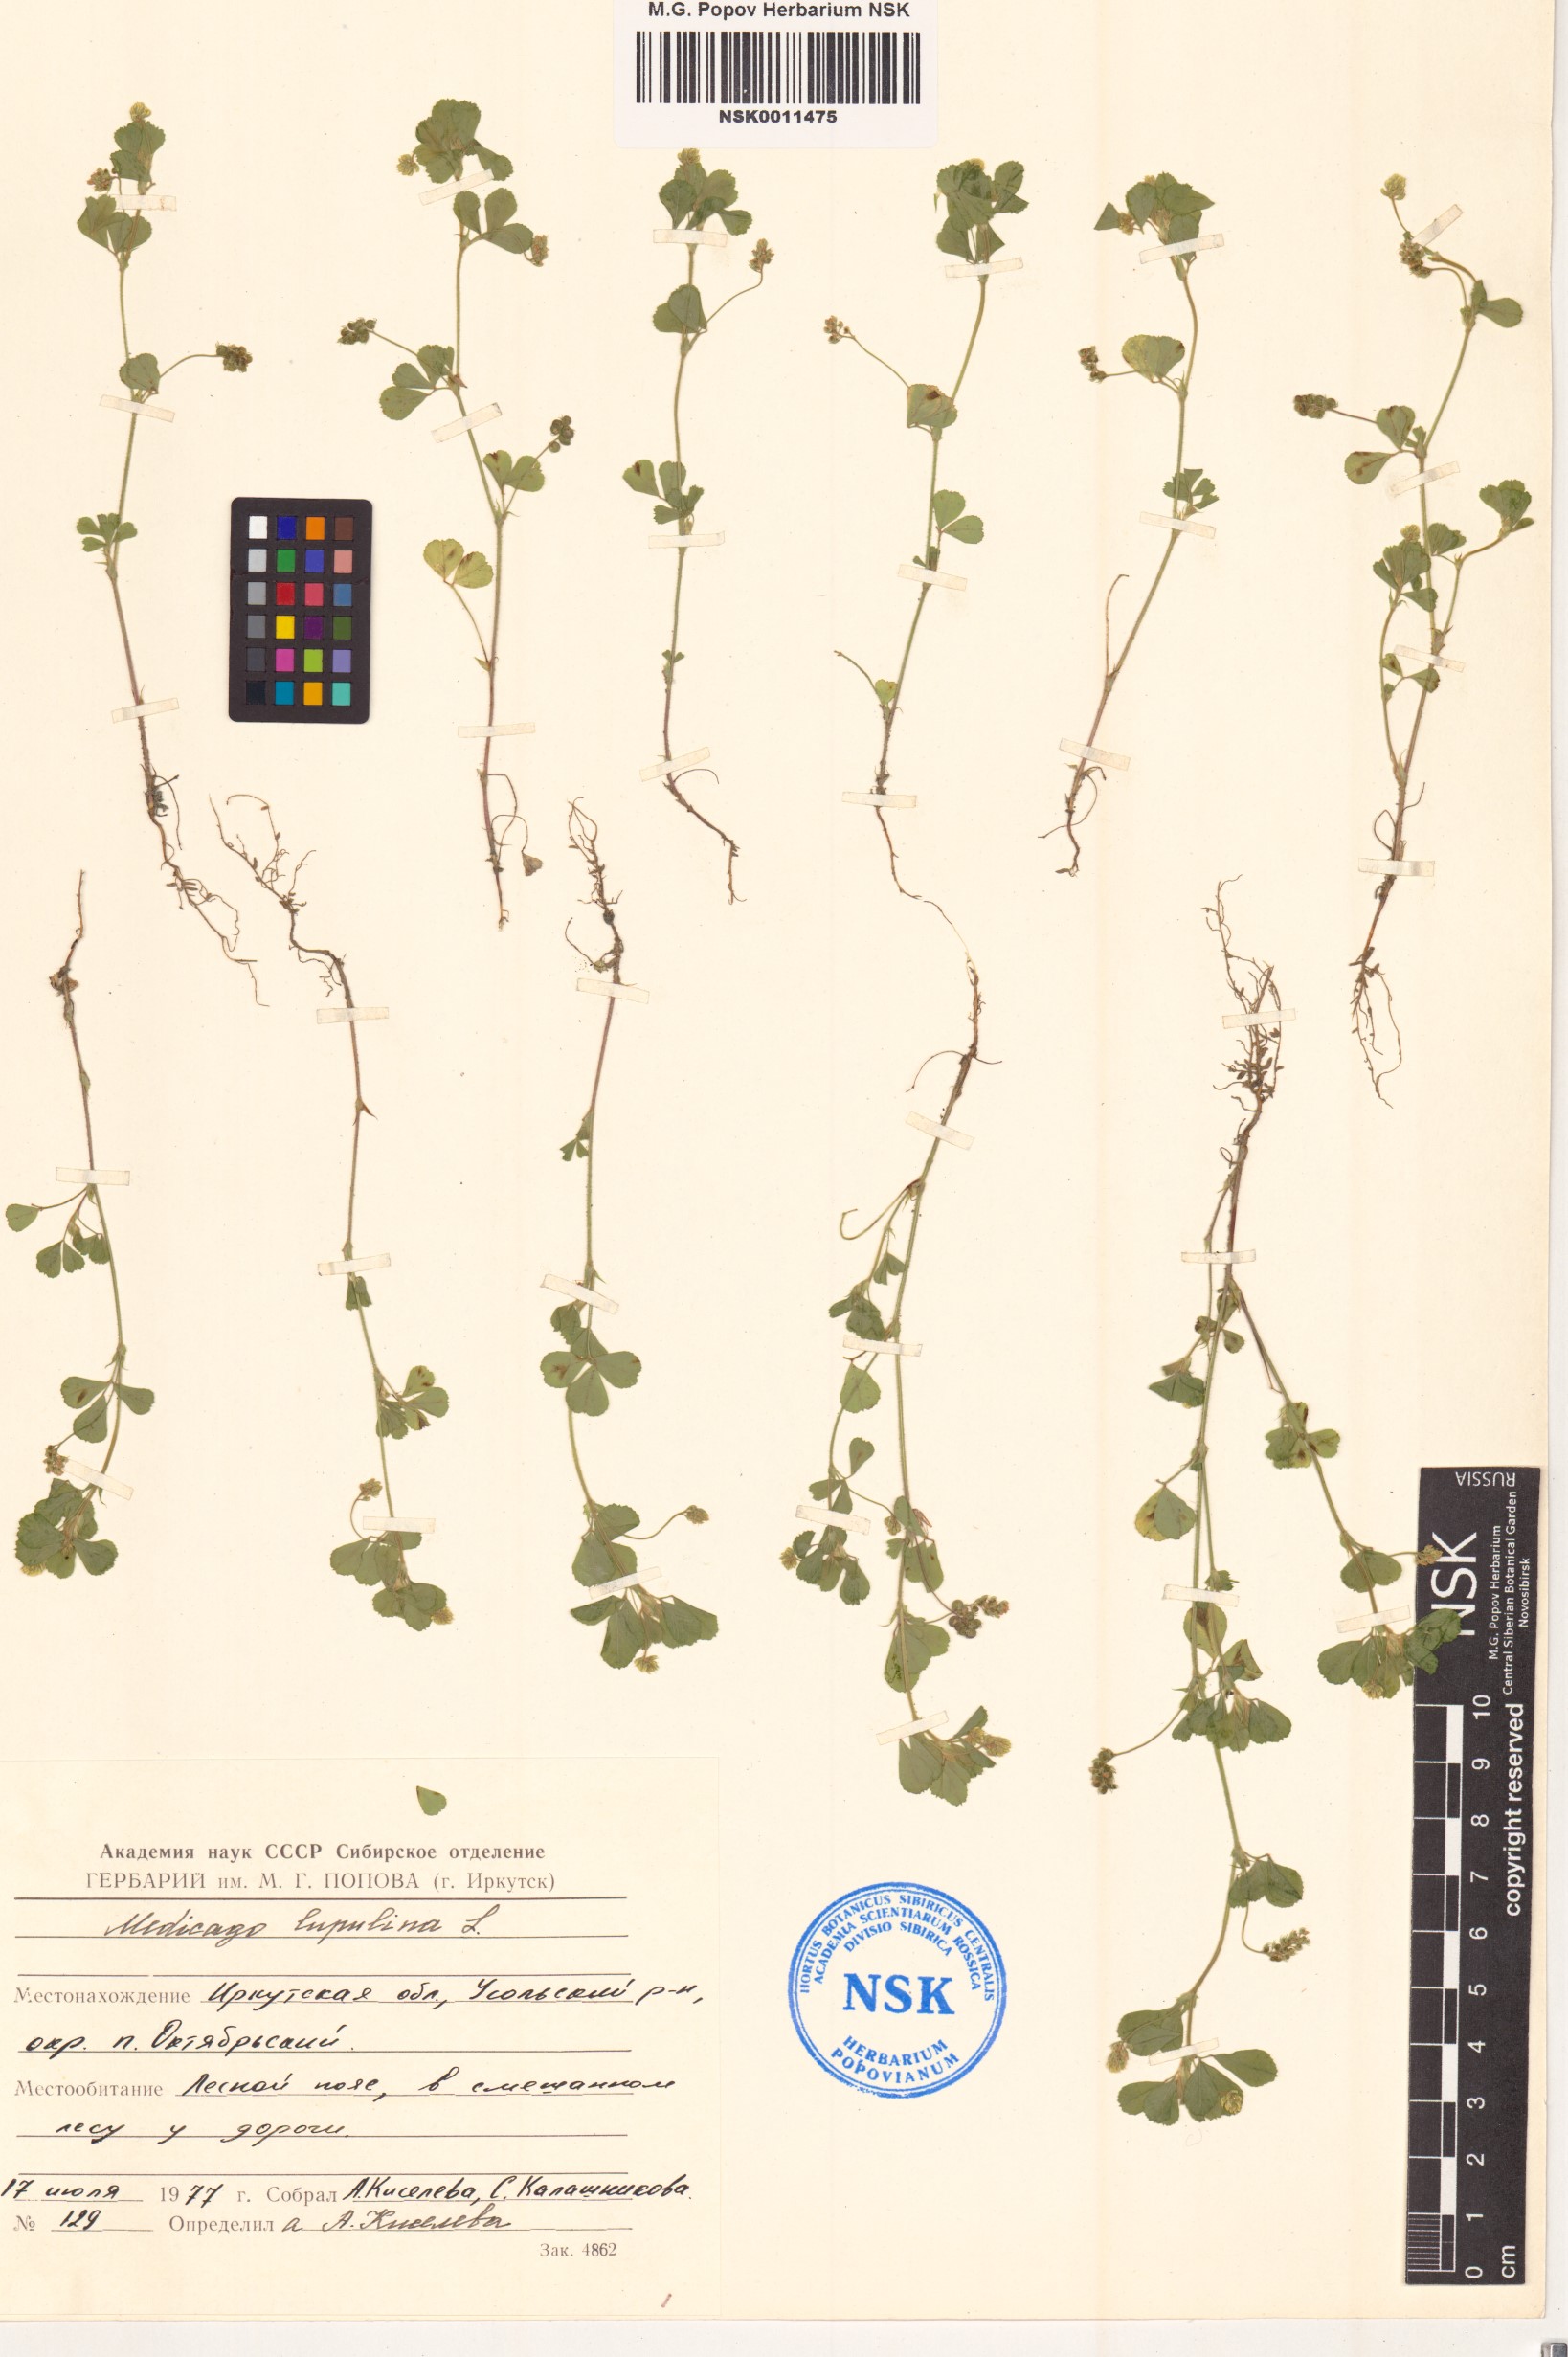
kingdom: Plantae
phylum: Tracheophyta
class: Magnoliopsida
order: Fabales
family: Fabaceae
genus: Medicago
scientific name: Medicago lupulina
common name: Black medick
